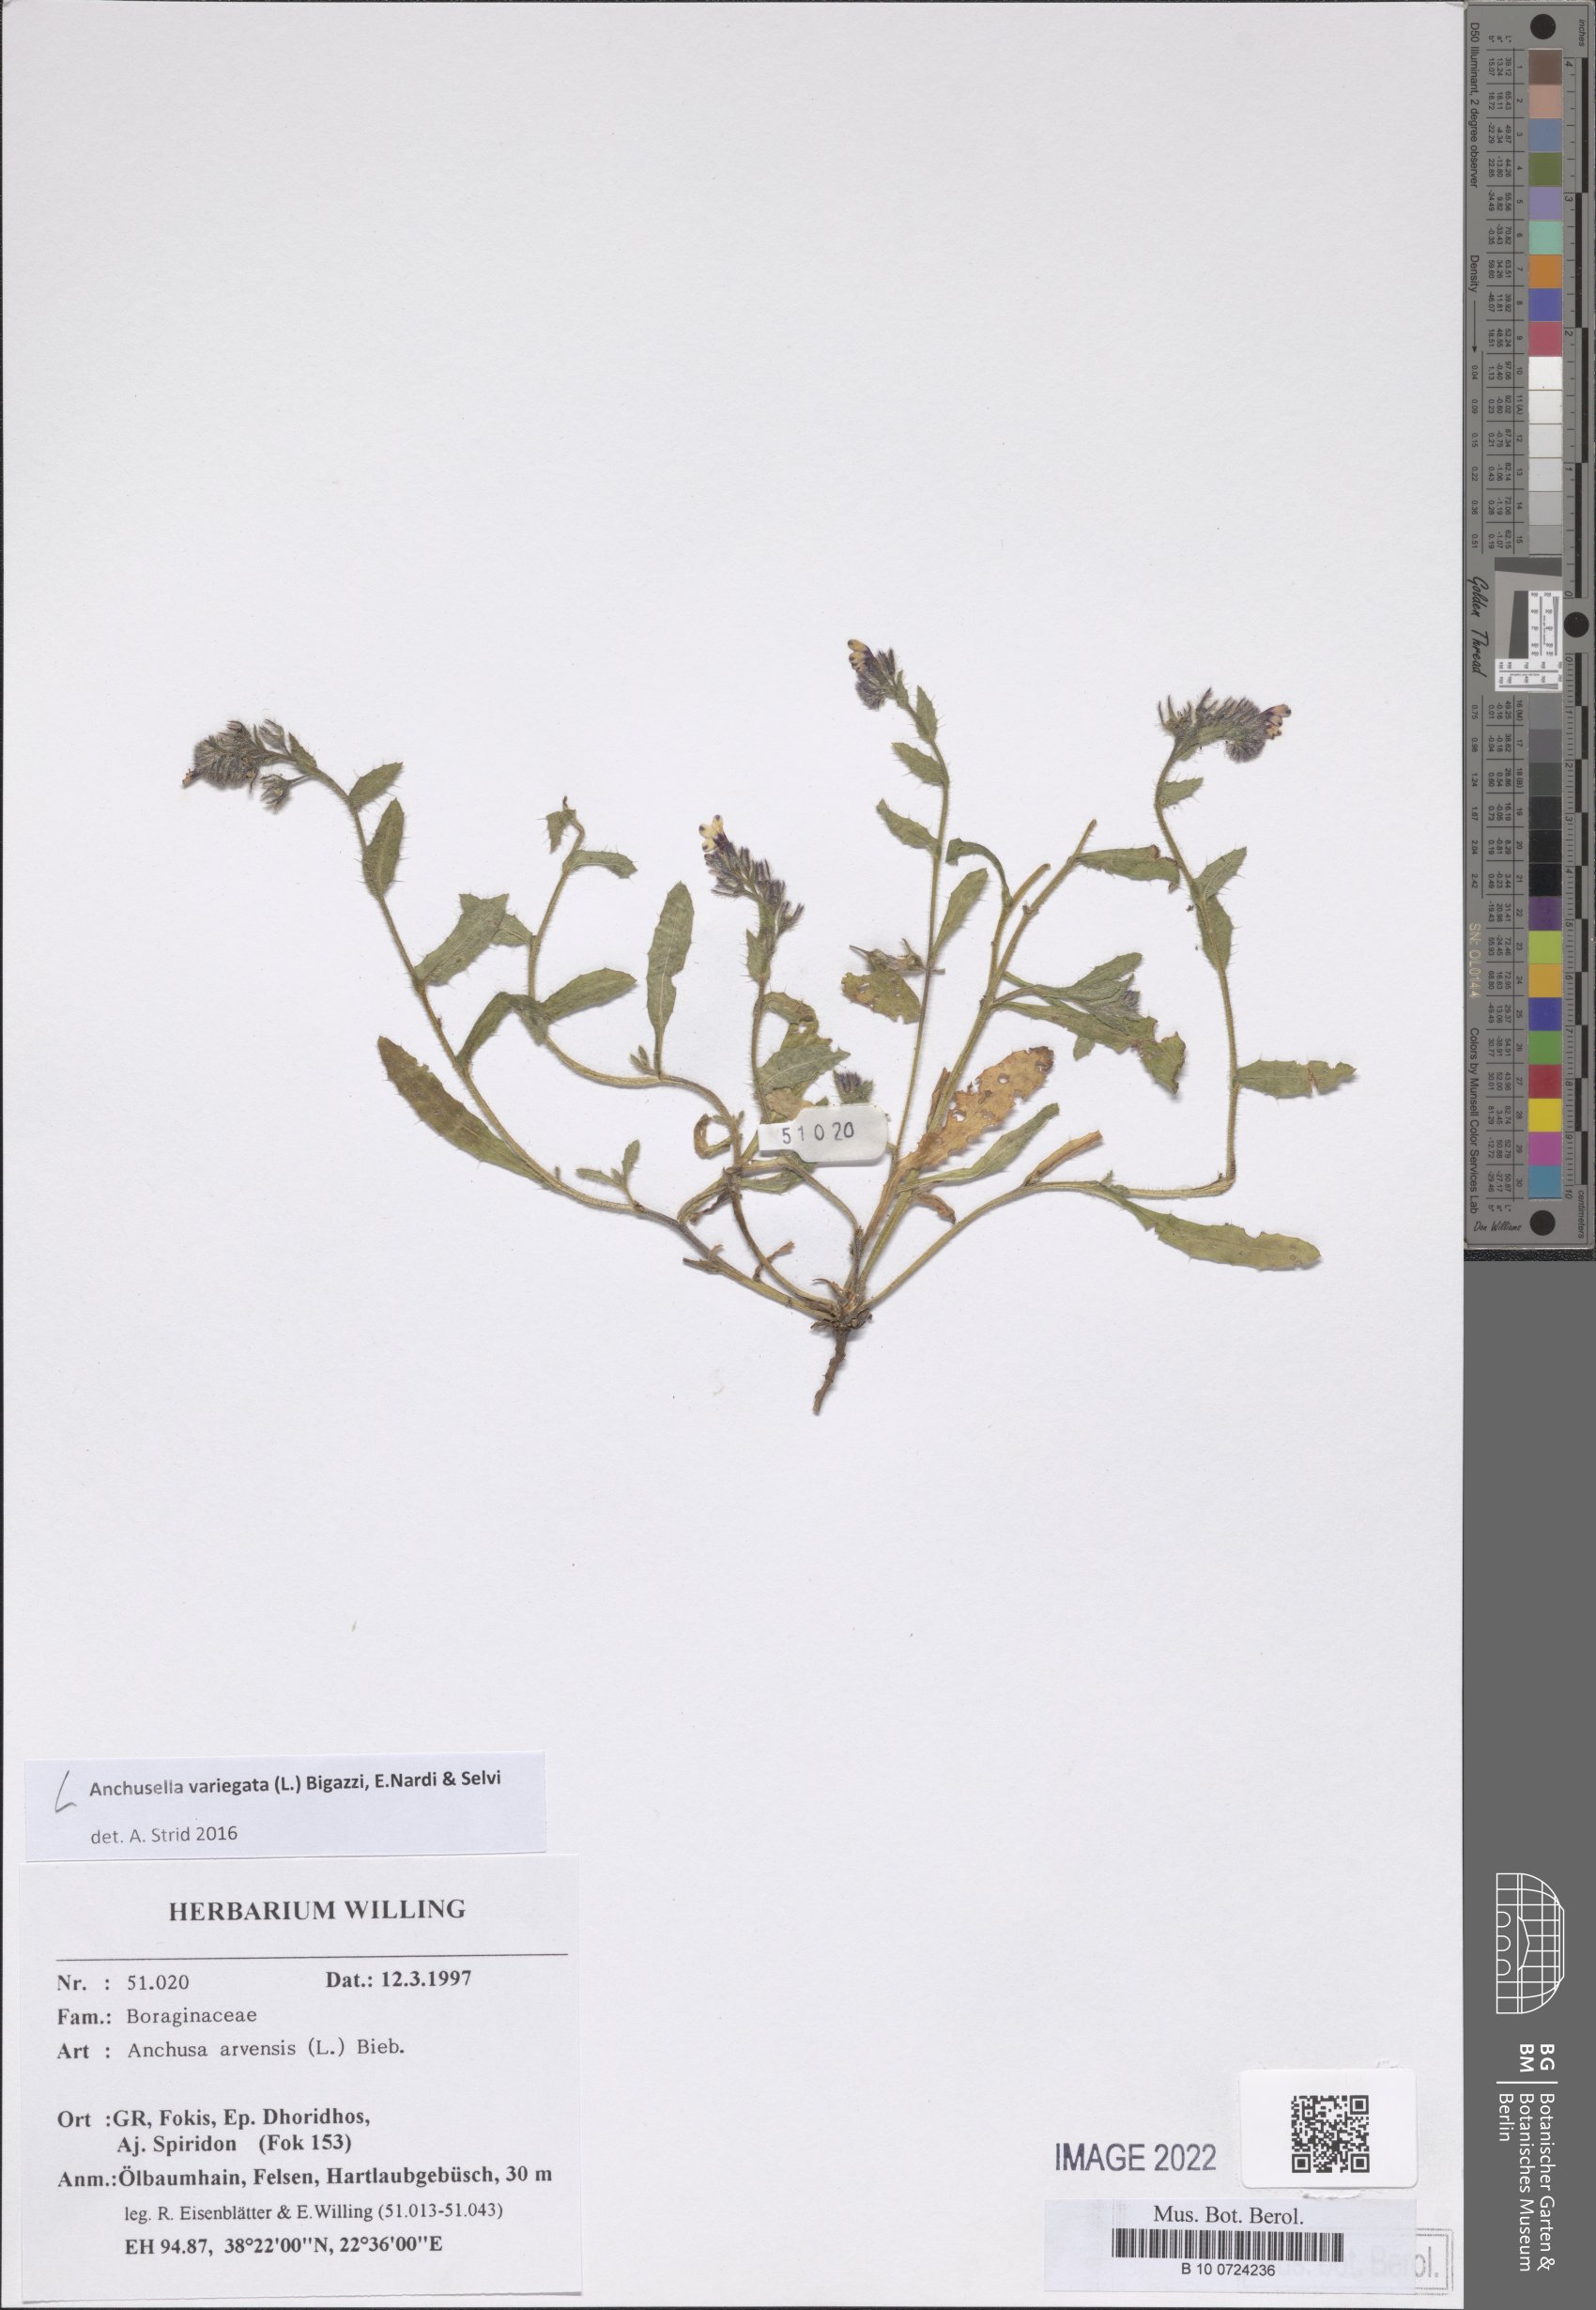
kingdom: Plantae
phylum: Tracheophyta
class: Magnoliopsida
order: Boraginales
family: Boraginaceae
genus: Anchusella
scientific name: Anchusella variegata
